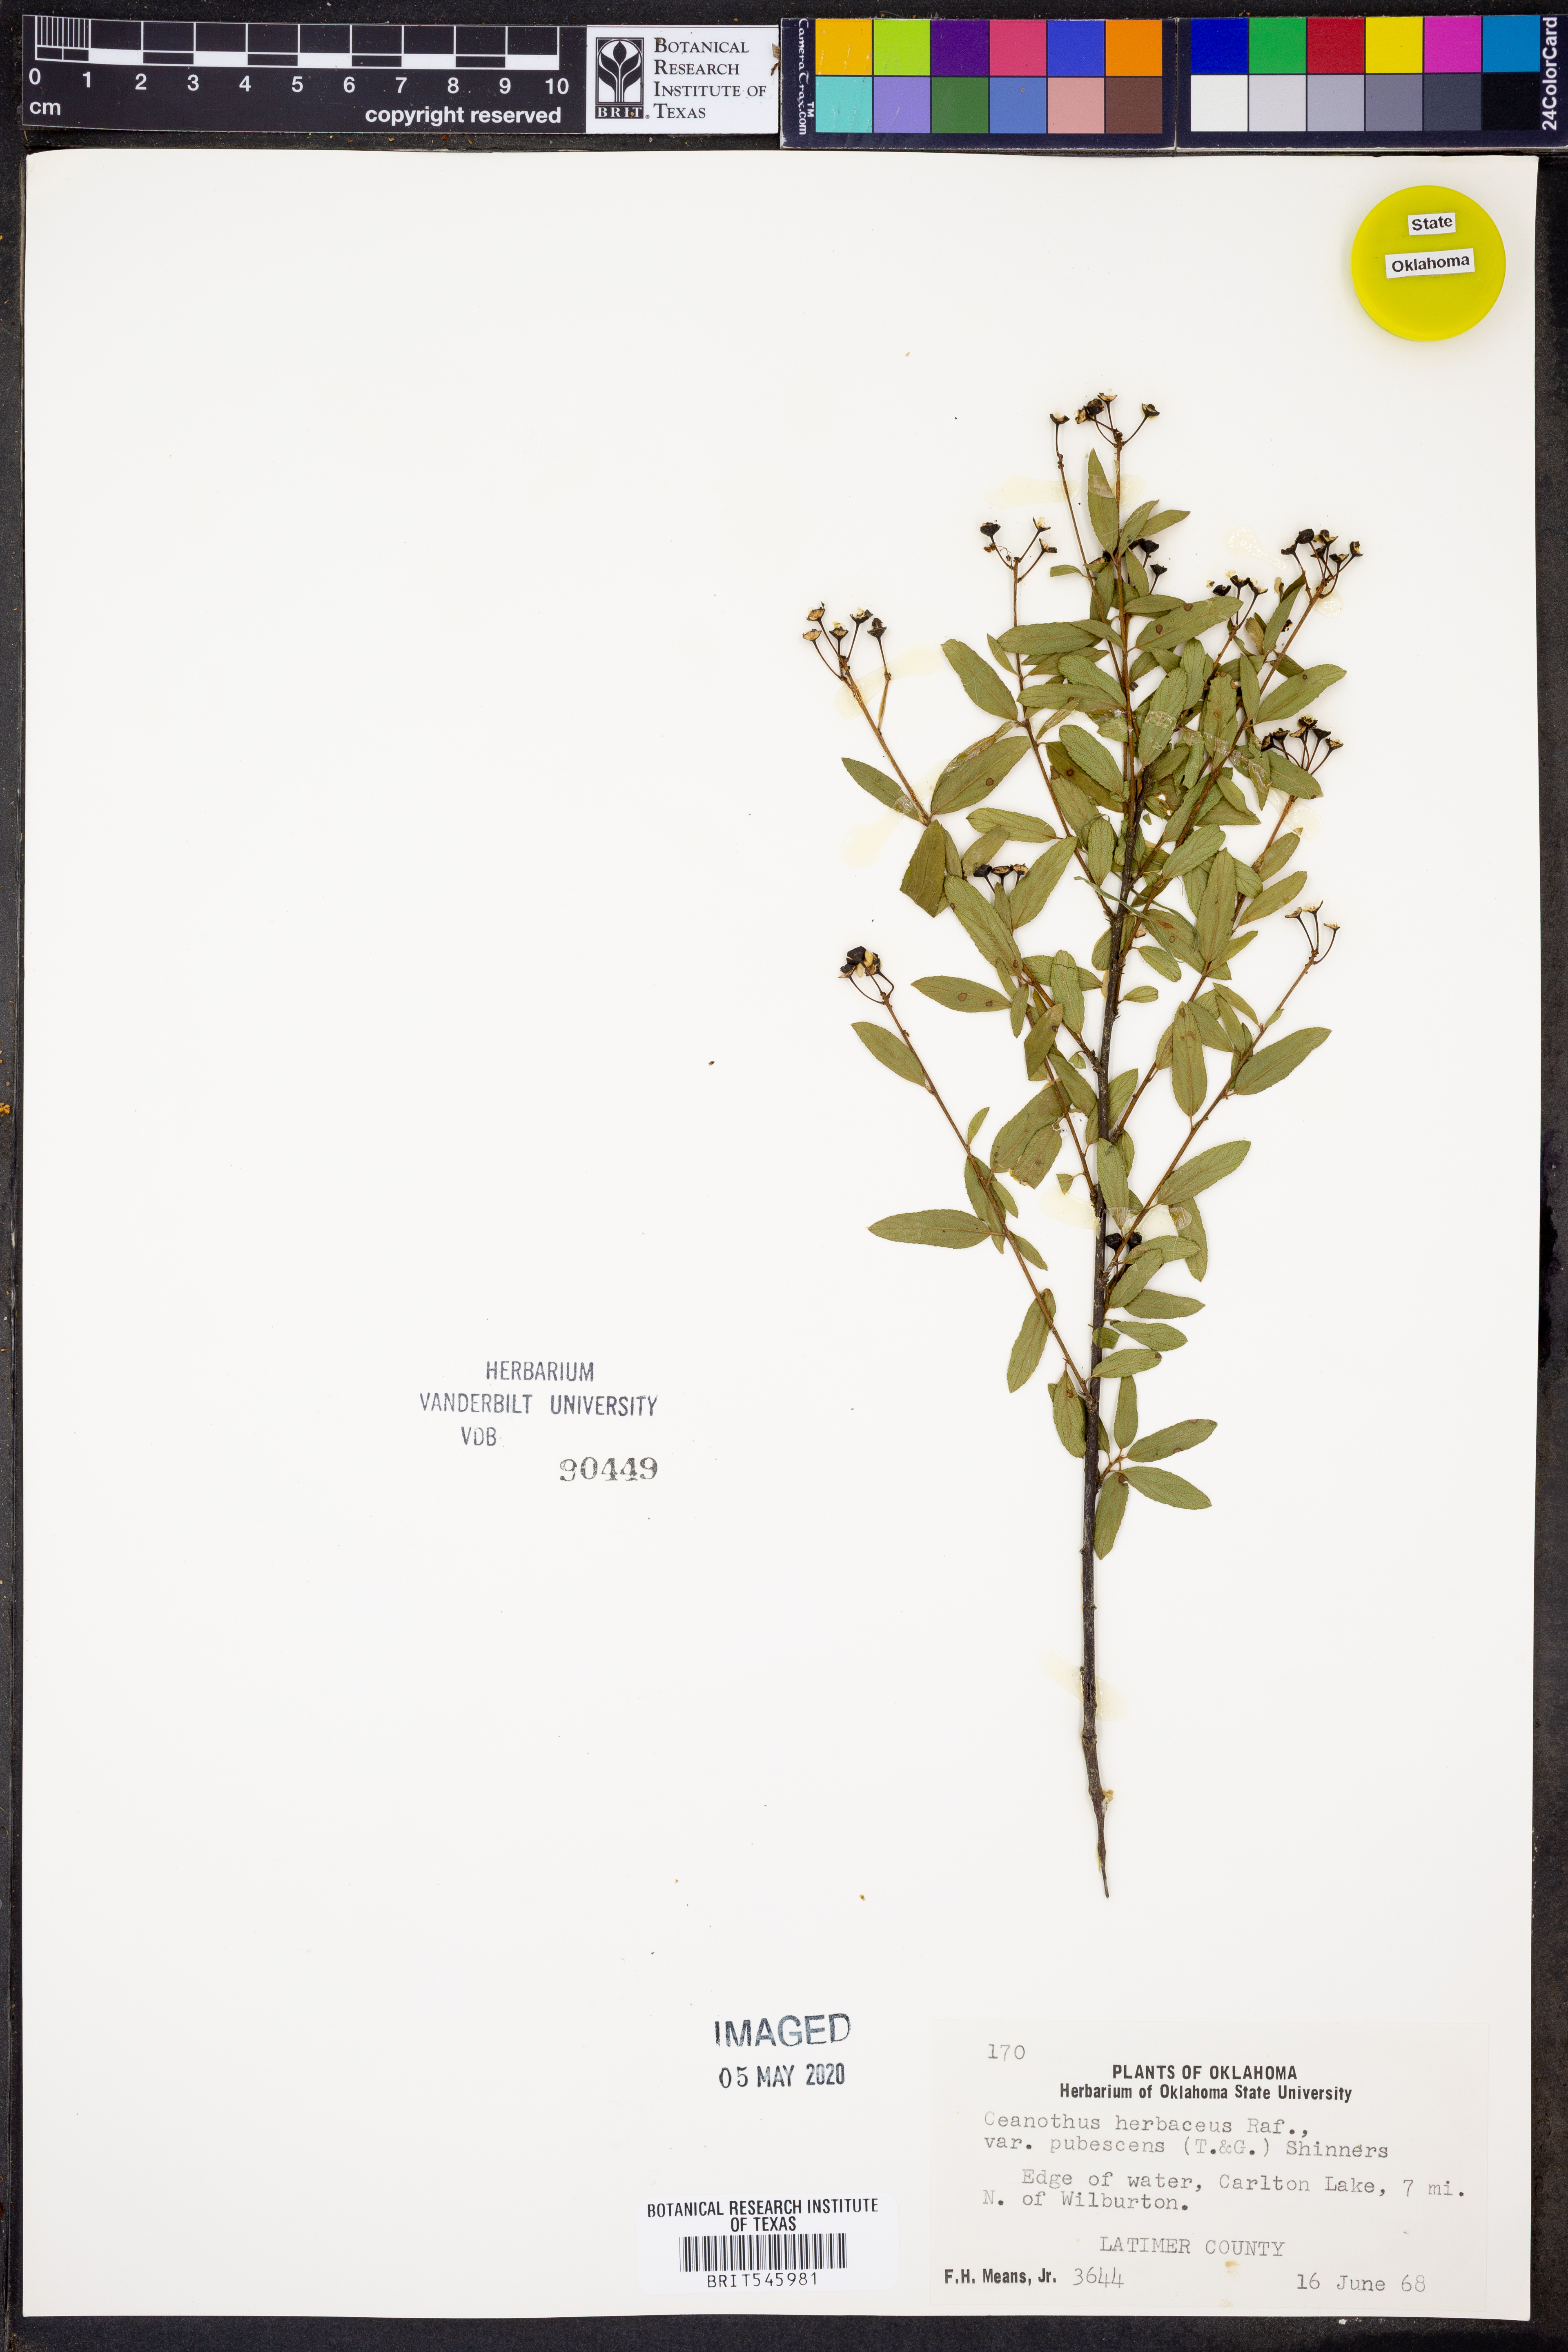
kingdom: Plantae
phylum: Tracheophyta
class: Magnoliopsida
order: Rosales
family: Rhamnaceae
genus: Ceanothus
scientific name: Ceanothus herbaceus
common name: Inland ceanothus
